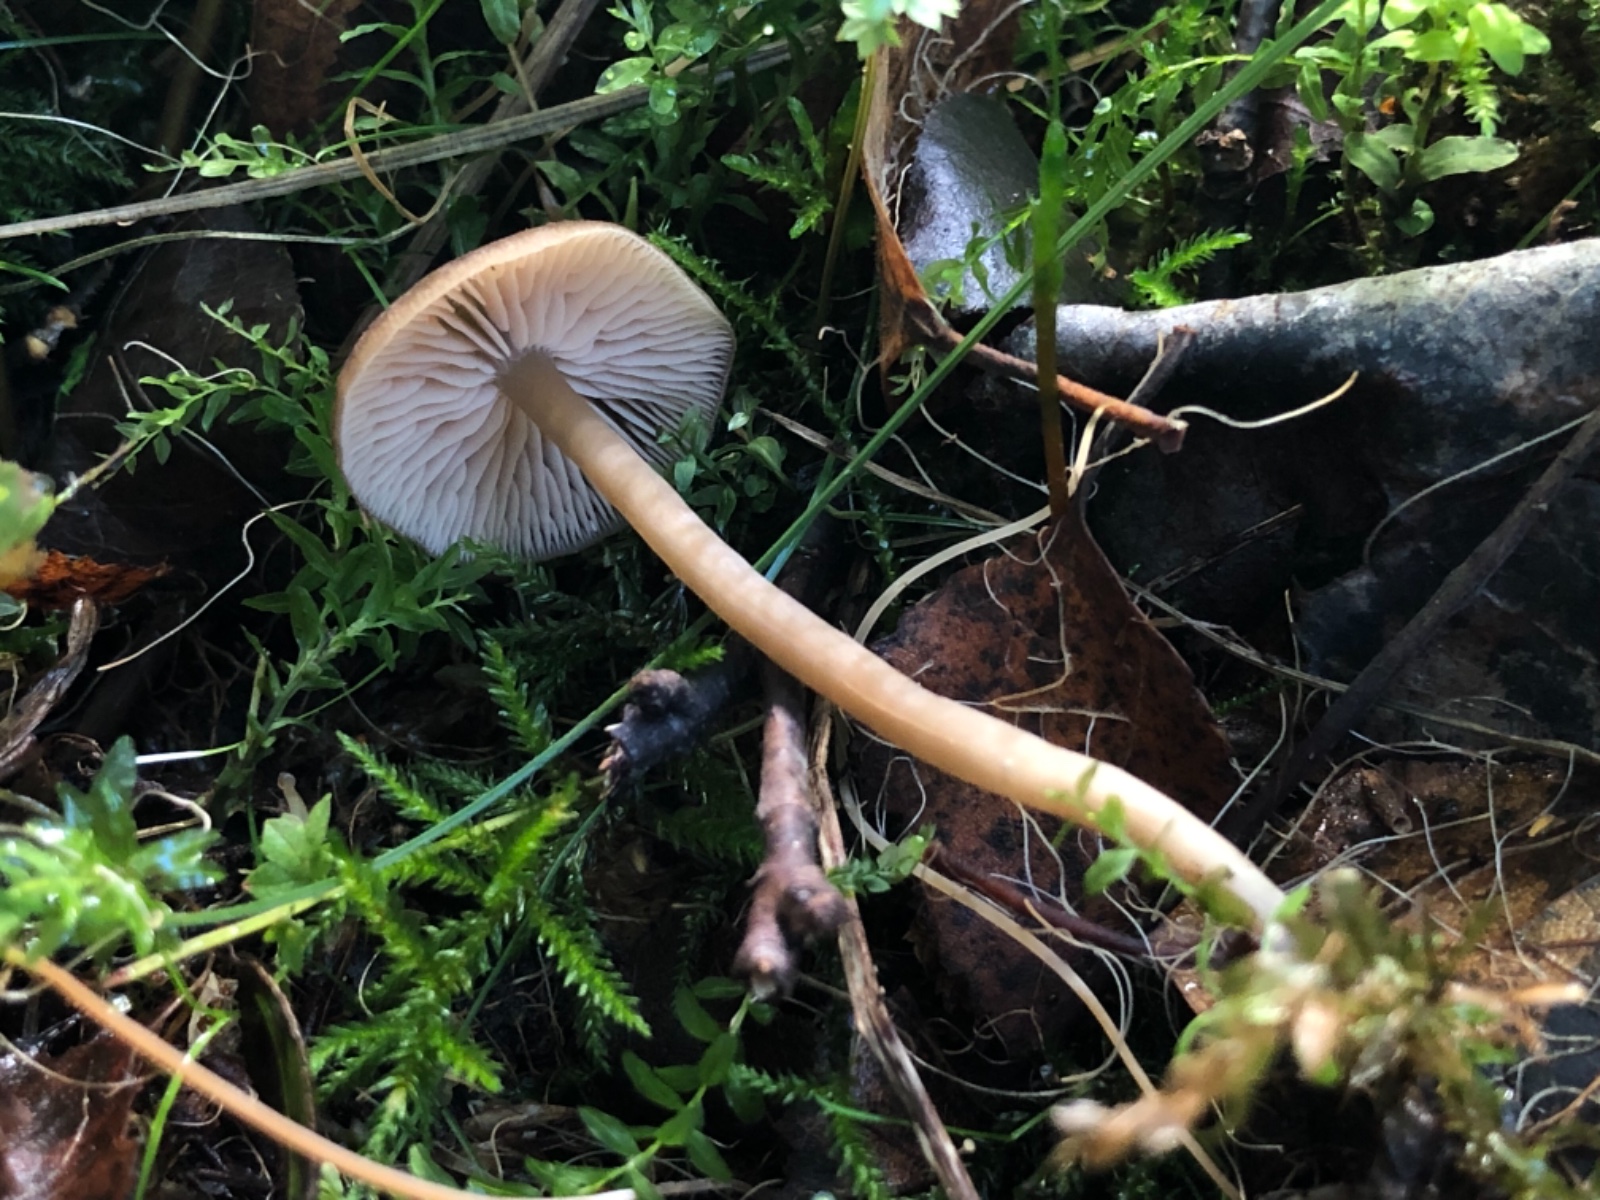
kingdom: Fungi
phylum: Basidiomycota
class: Agaricomycetes
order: Agaricales
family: Entolomataceae
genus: Entoloma
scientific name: Entoloma politum
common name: poleret rødblad
